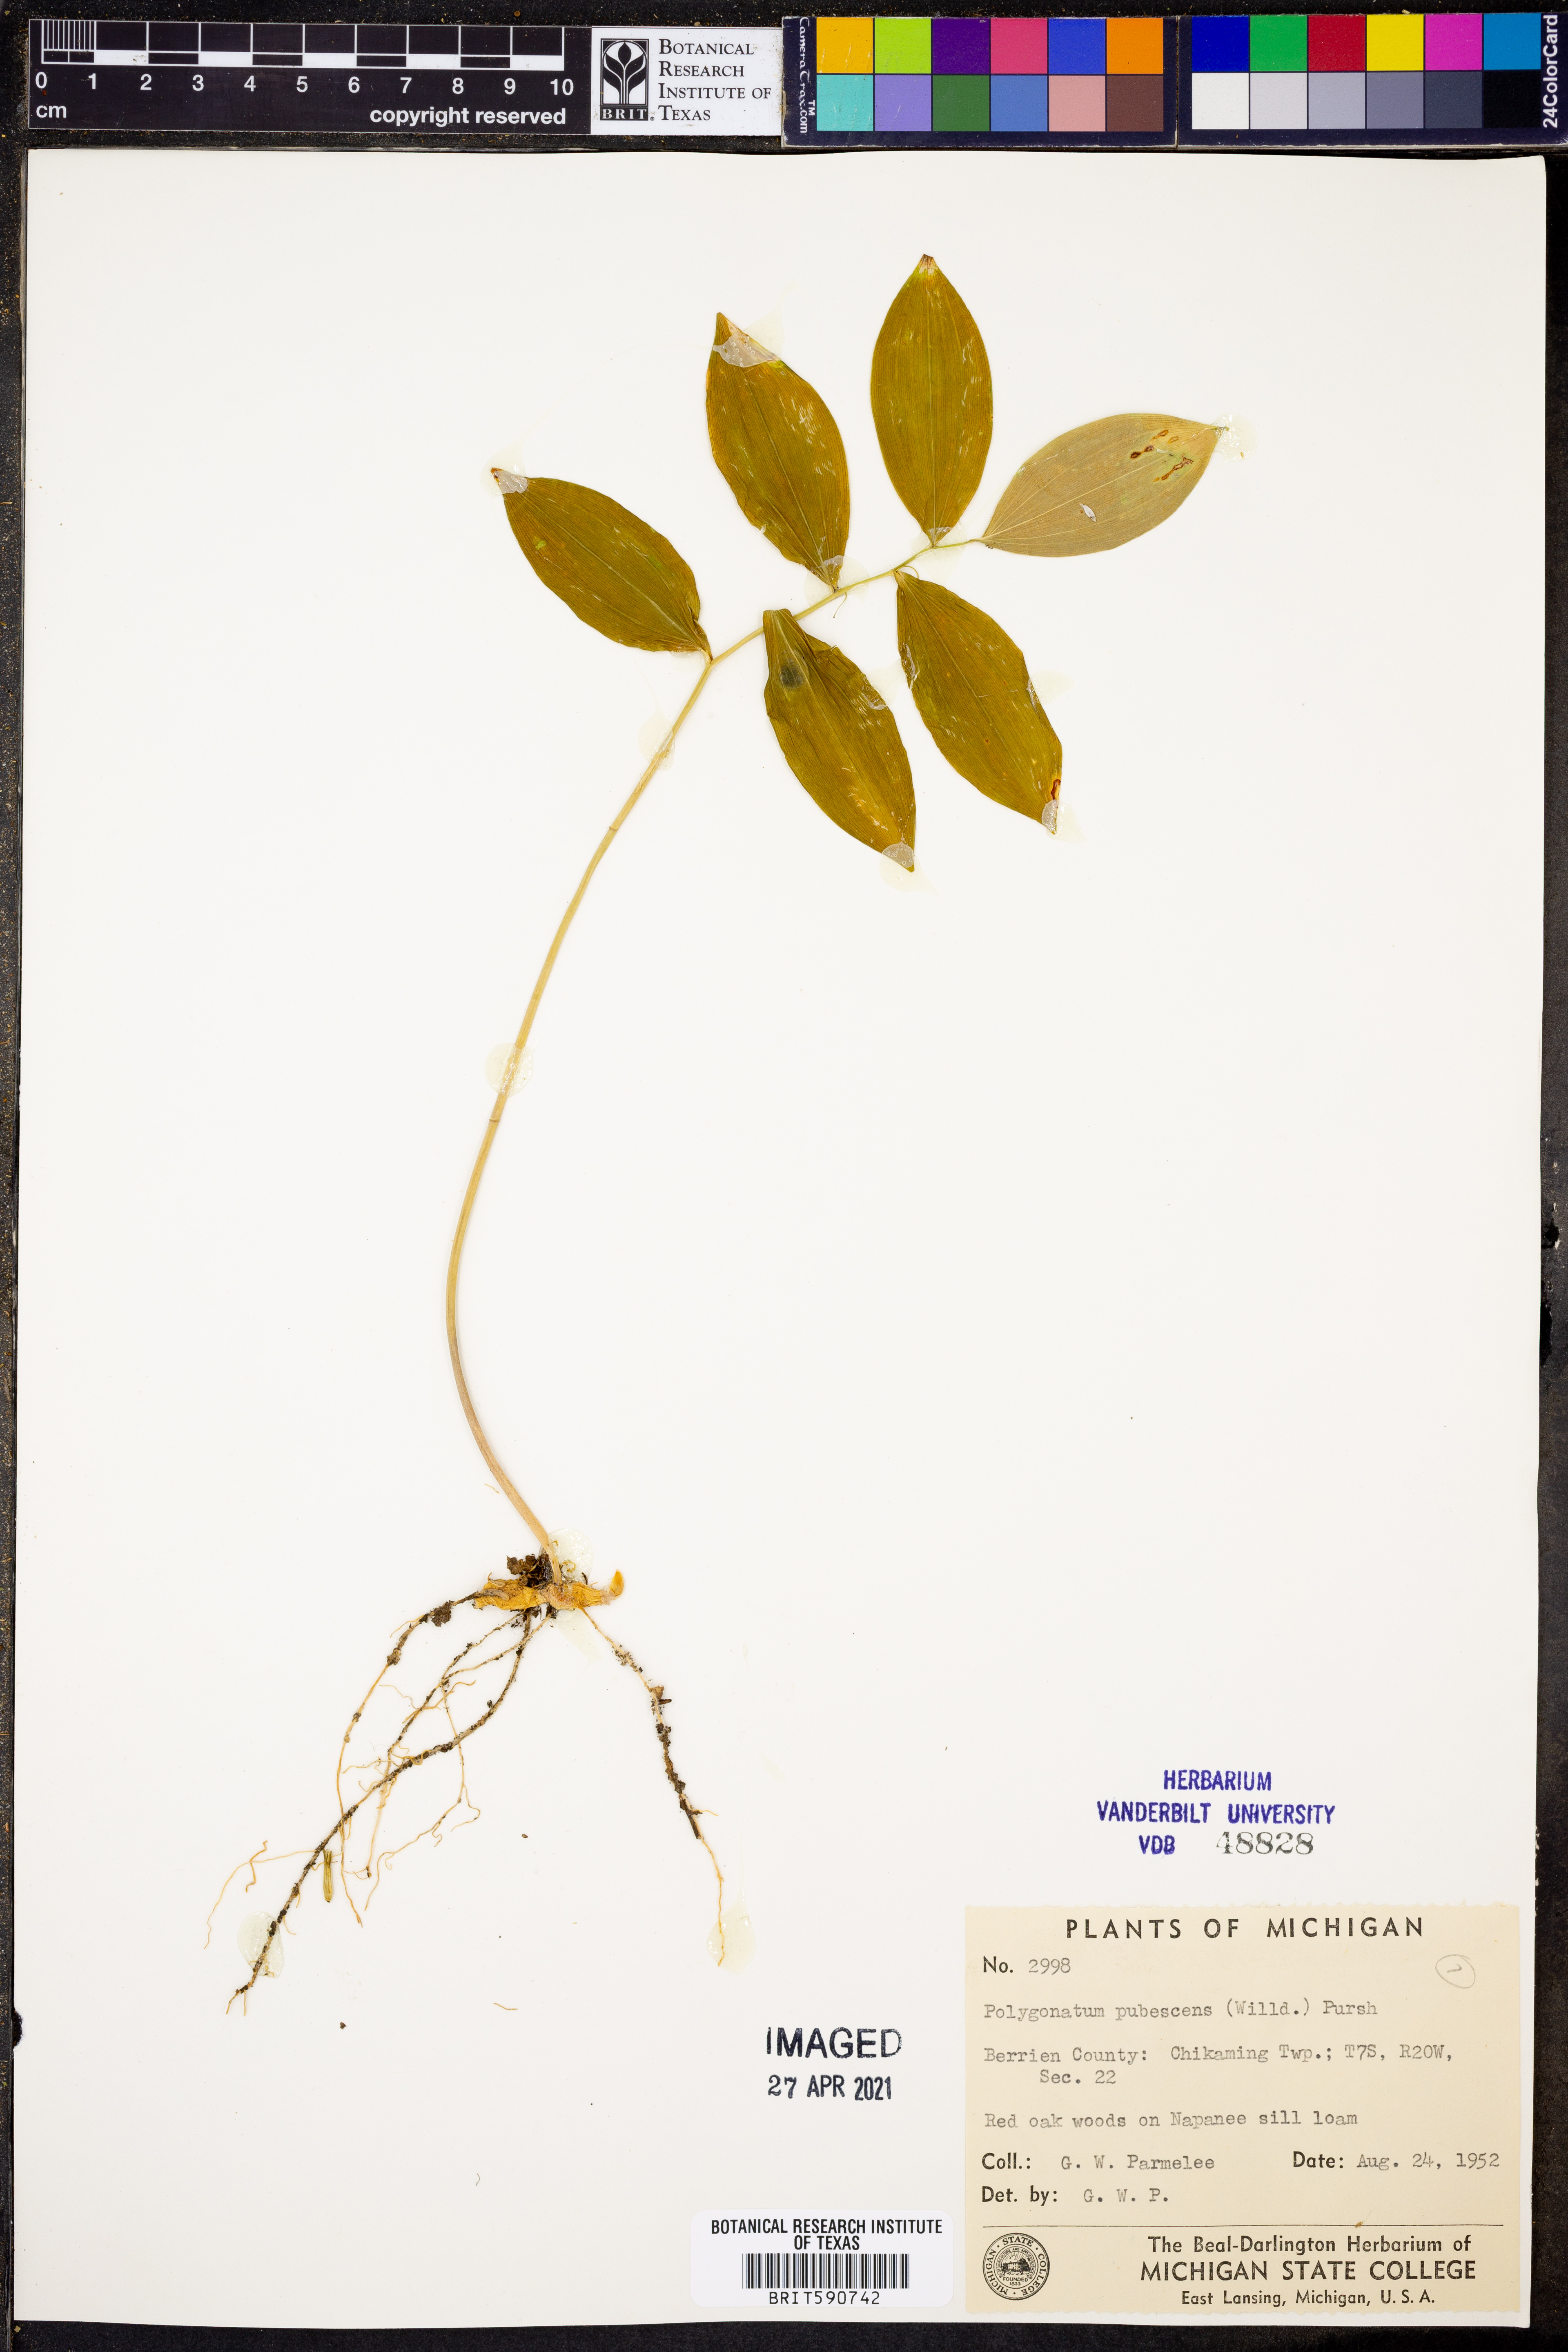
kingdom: Plantae
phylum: Tracheophyta
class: Liliopsida
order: Asparagales
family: Asparagaceae
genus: Polygonatum
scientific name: Polygonatum pubescens
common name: Downy solomon's seal
